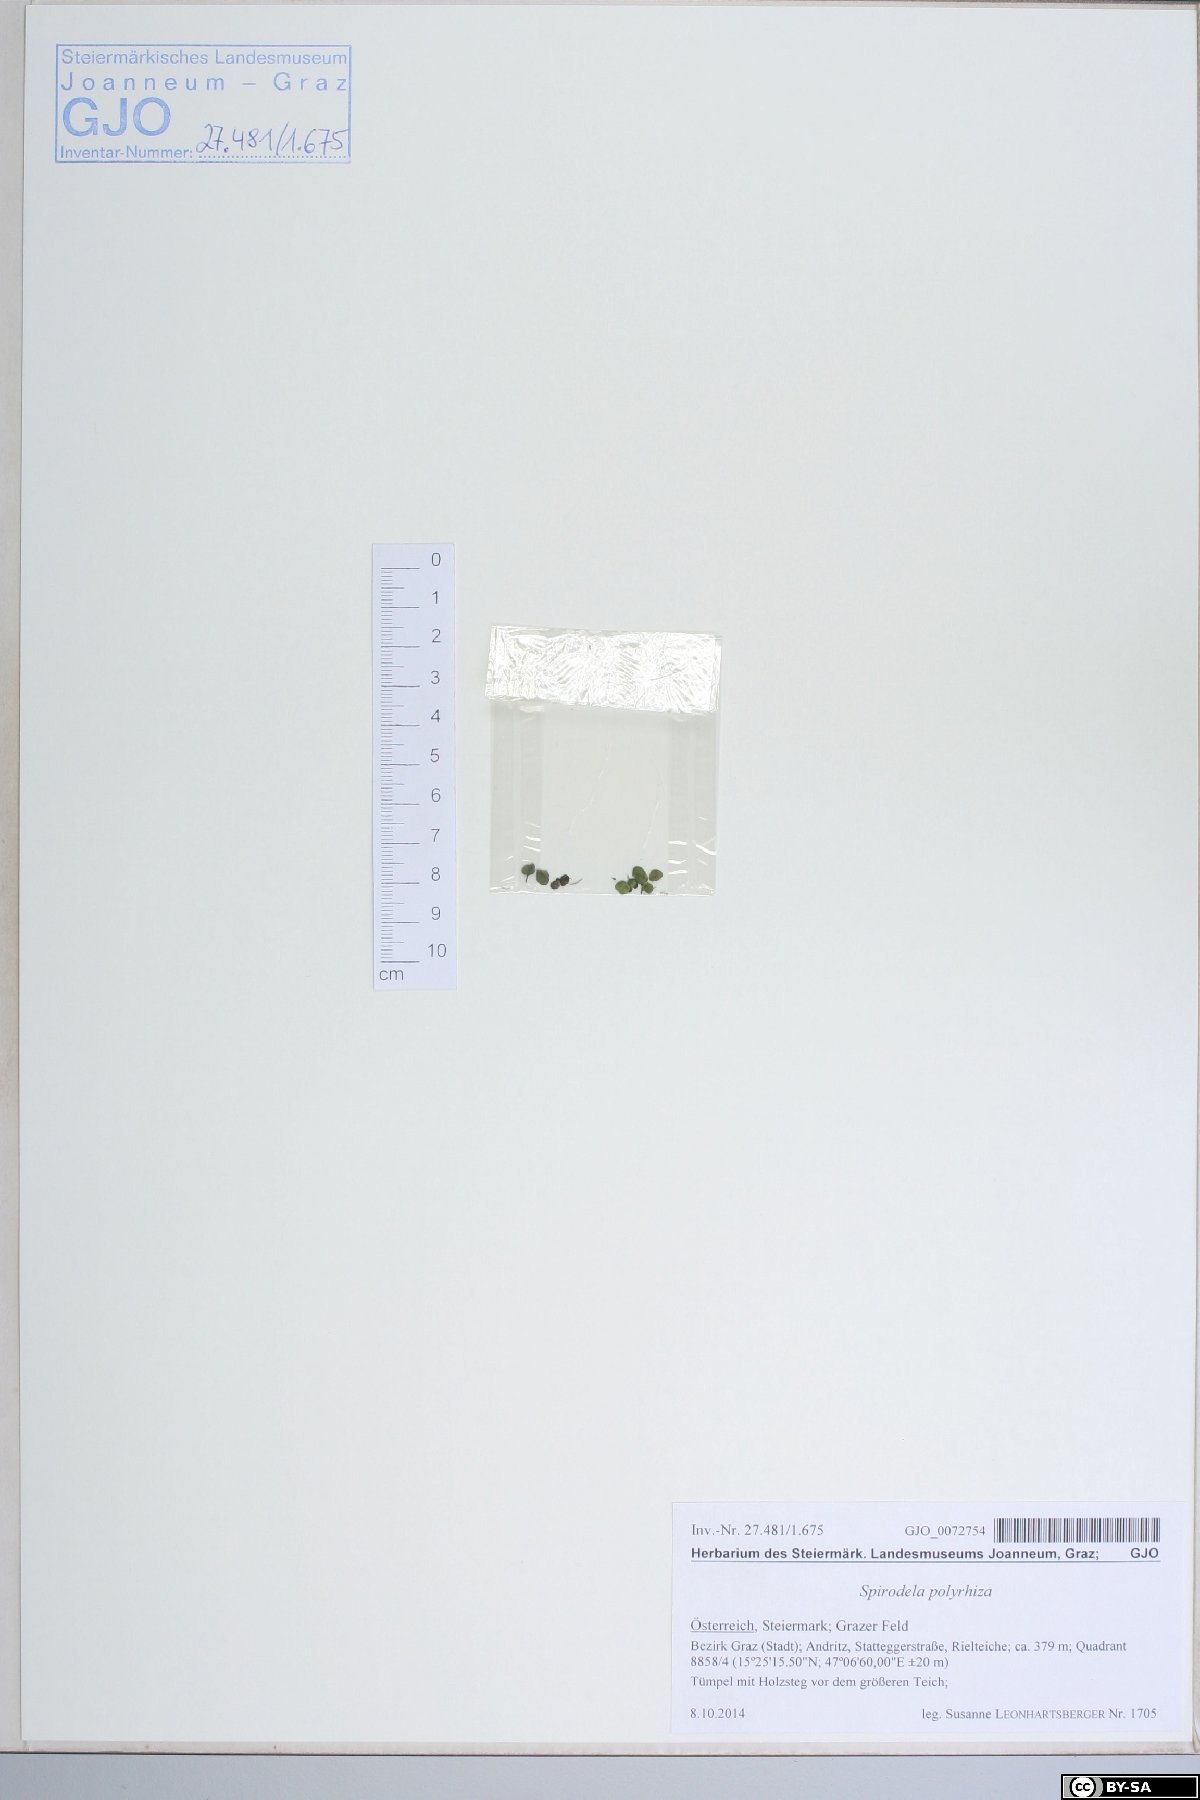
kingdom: Plantae
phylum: Tracheophyta
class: Liliopsida
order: Alismatales
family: Araceae
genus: Spirodela
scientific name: Spirodela polyrhiza
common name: Great duckweed
